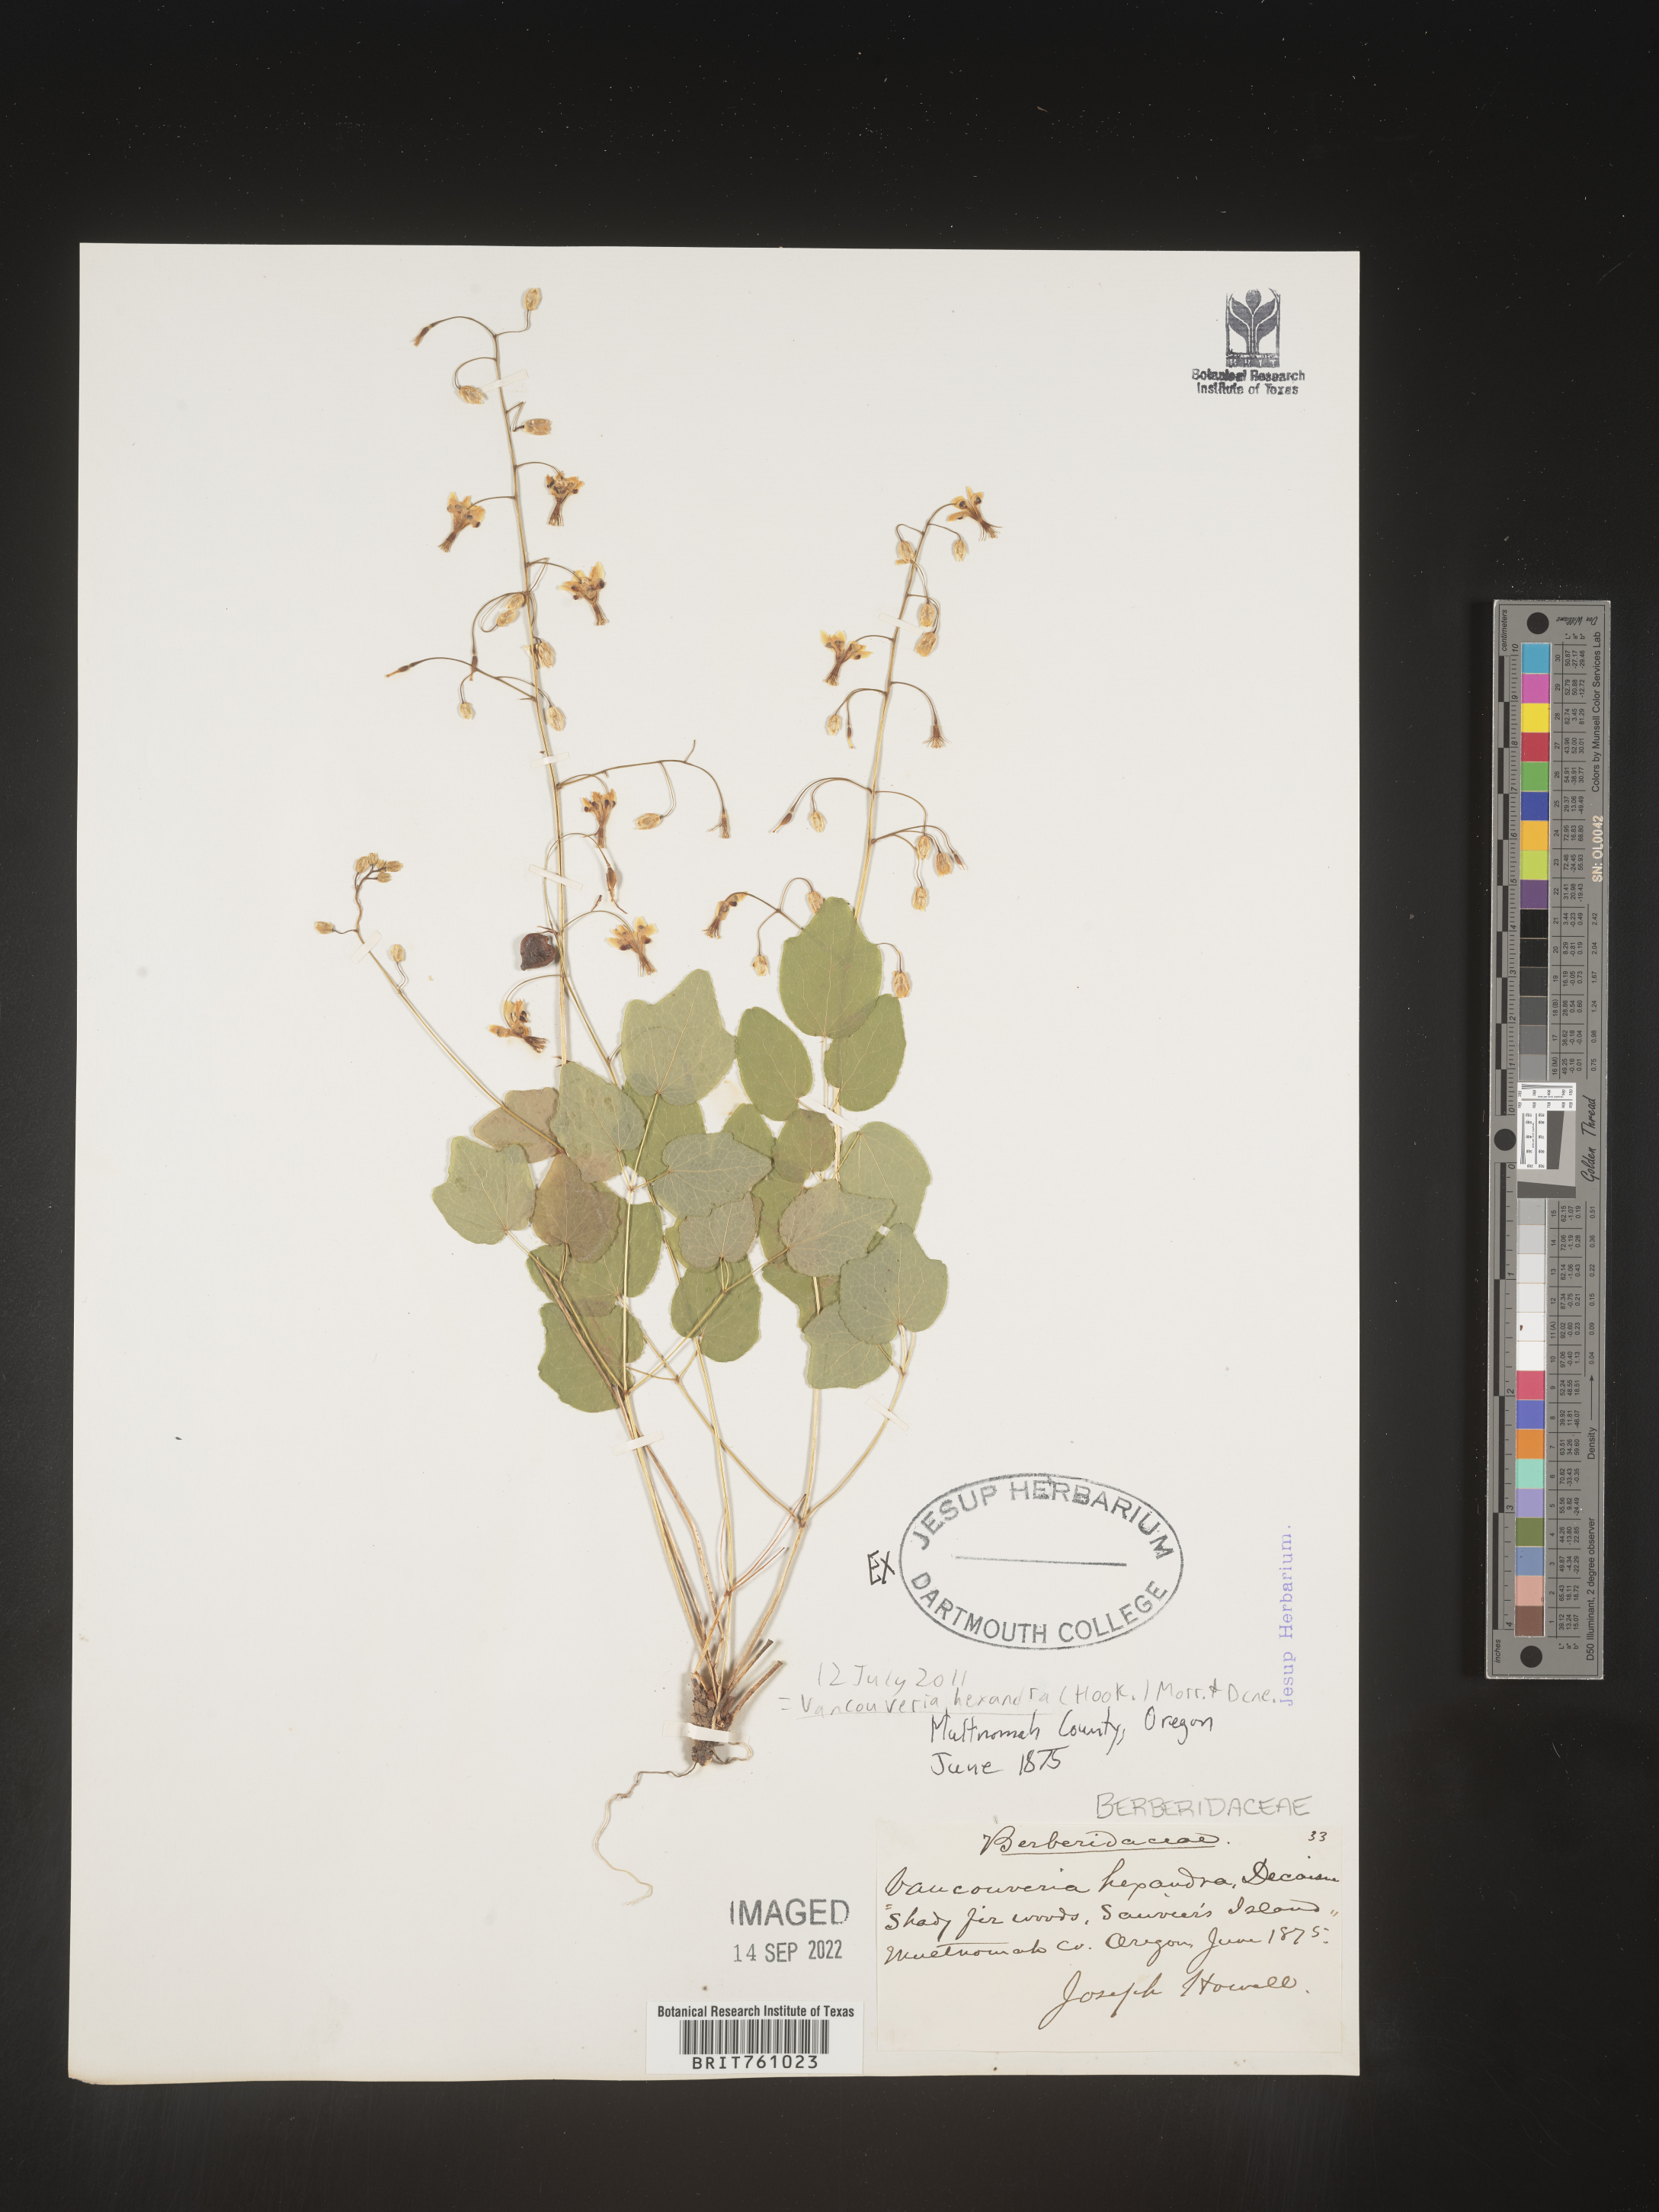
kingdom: Plantae
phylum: Tracheophyta
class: Magnoliopsida
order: Ranunculales
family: Berberidaceae
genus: Vancouveria
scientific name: Vancouveria
